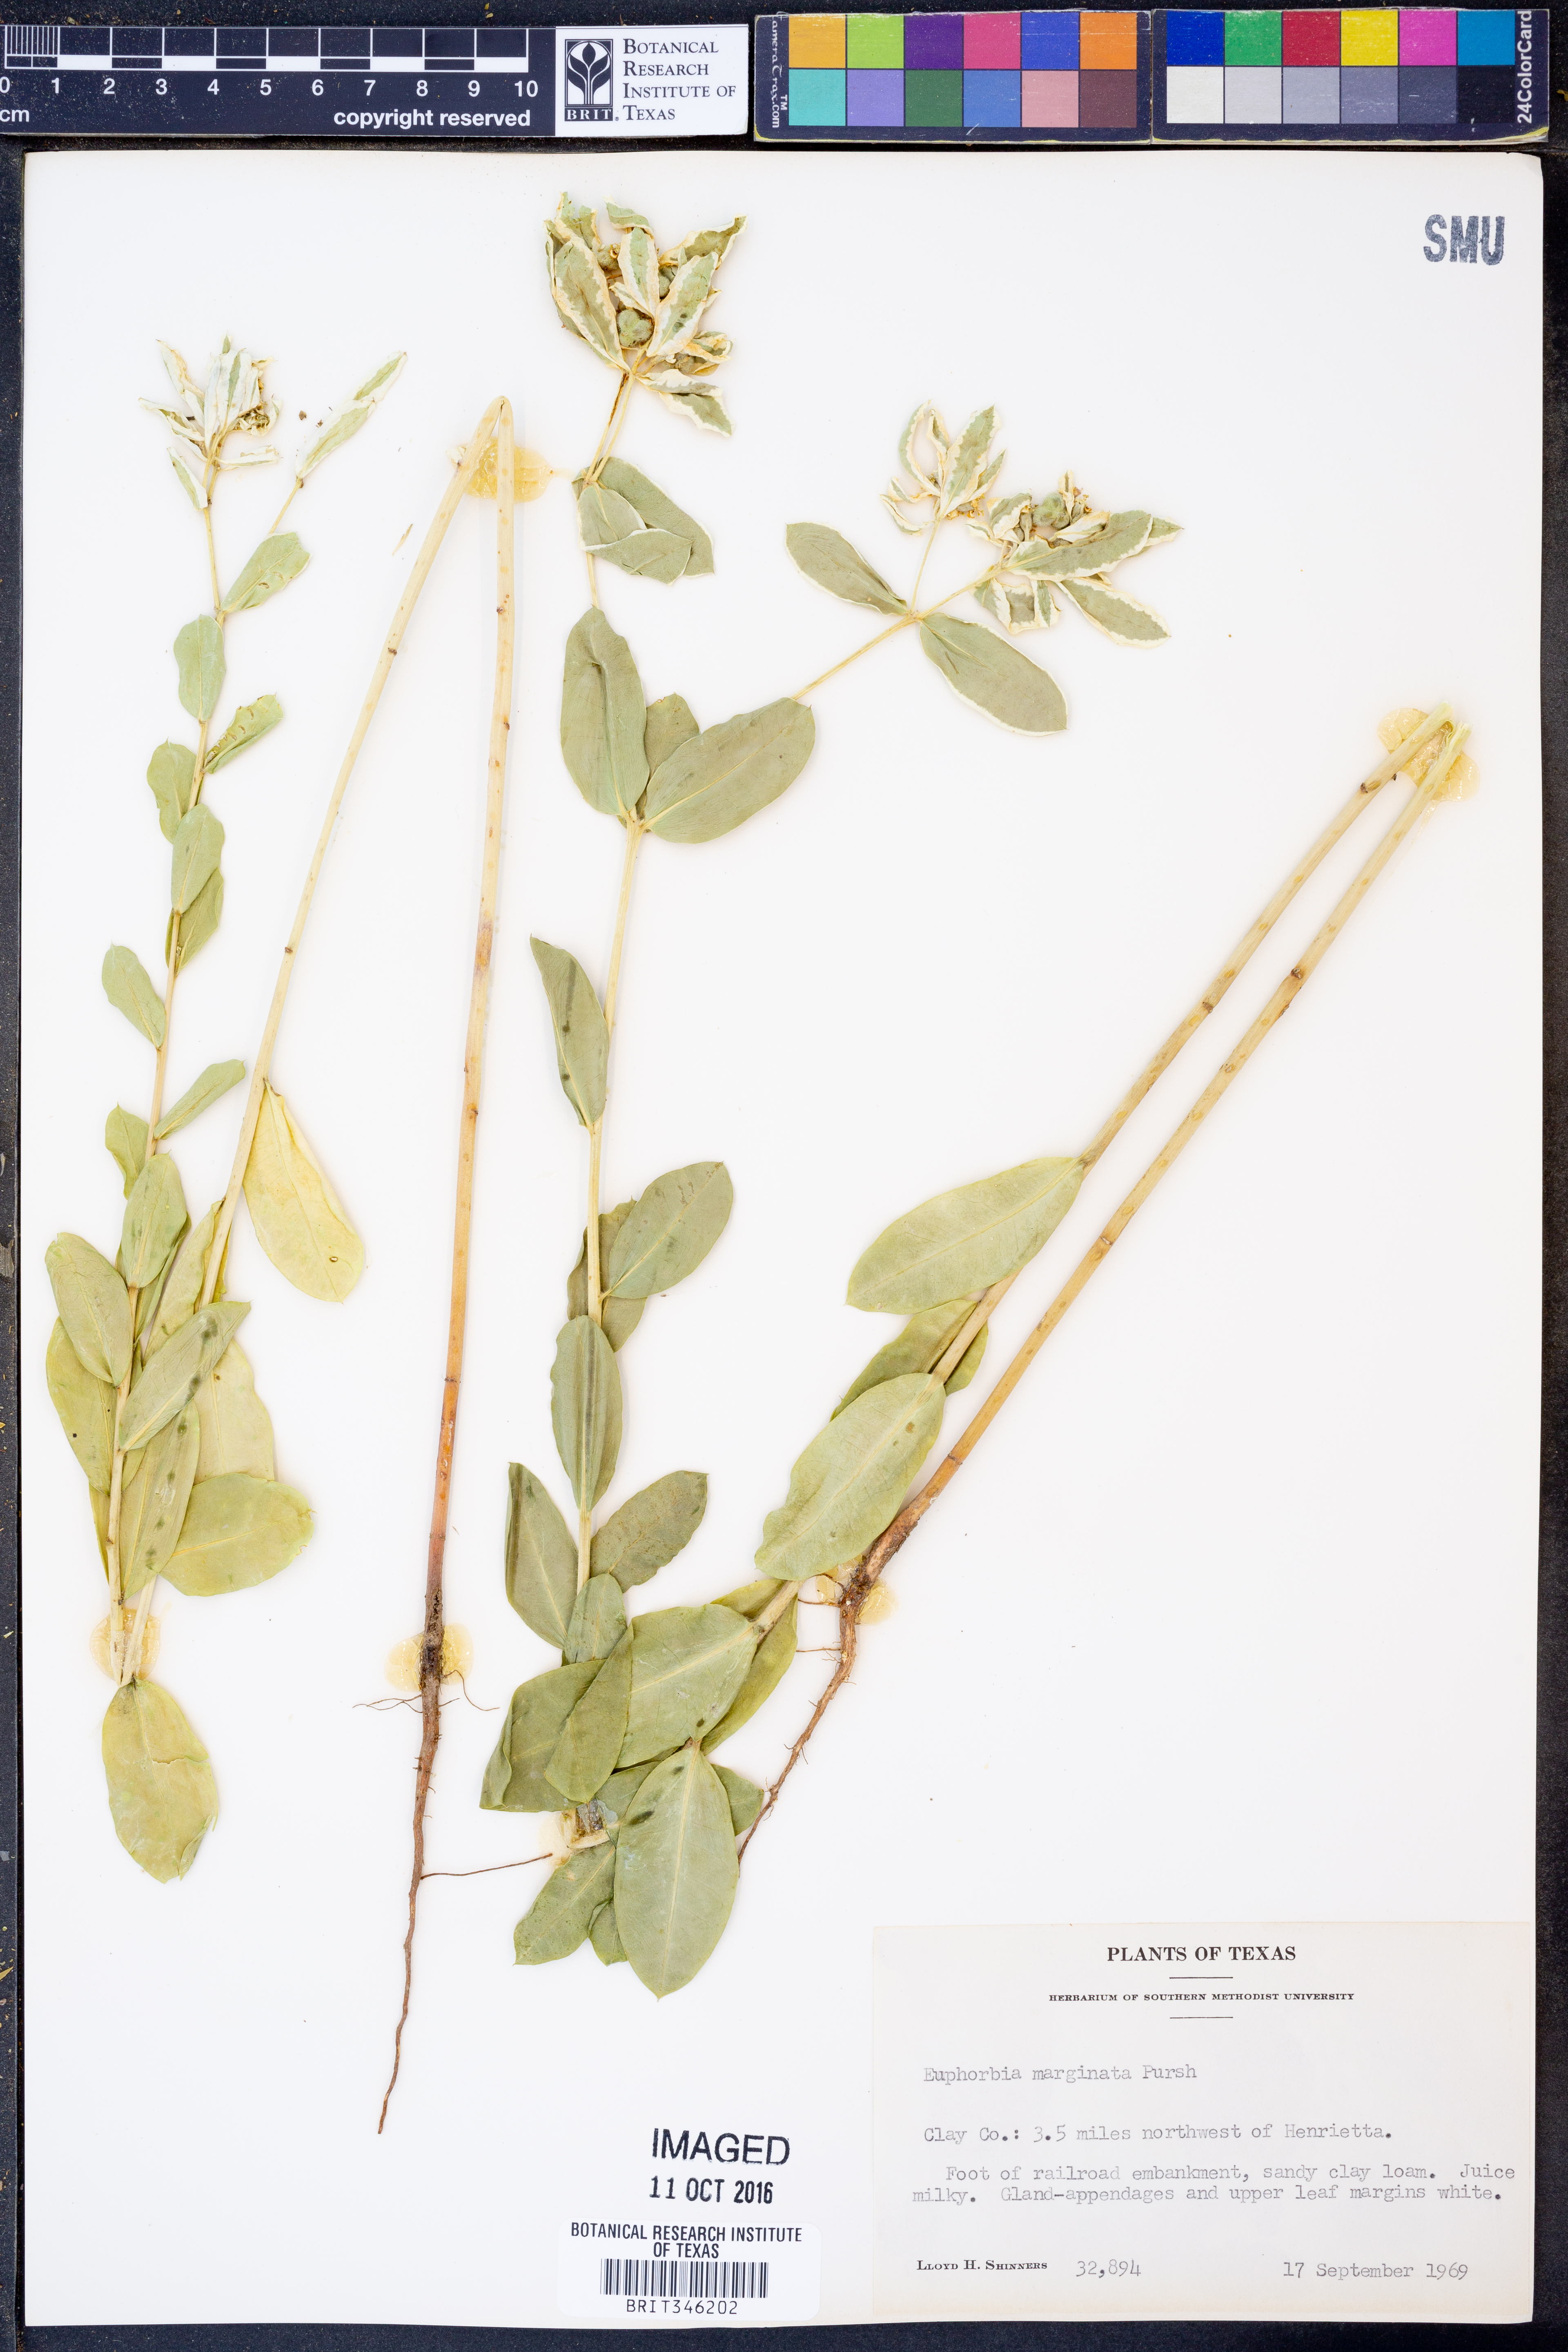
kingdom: Plantae
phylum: Tracheophyta
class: Magnoliopsida
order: Malpighiales
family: Euphorbiaceae
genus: Euphorbia
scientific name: Euphorbia marginata
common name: Ghostweed
